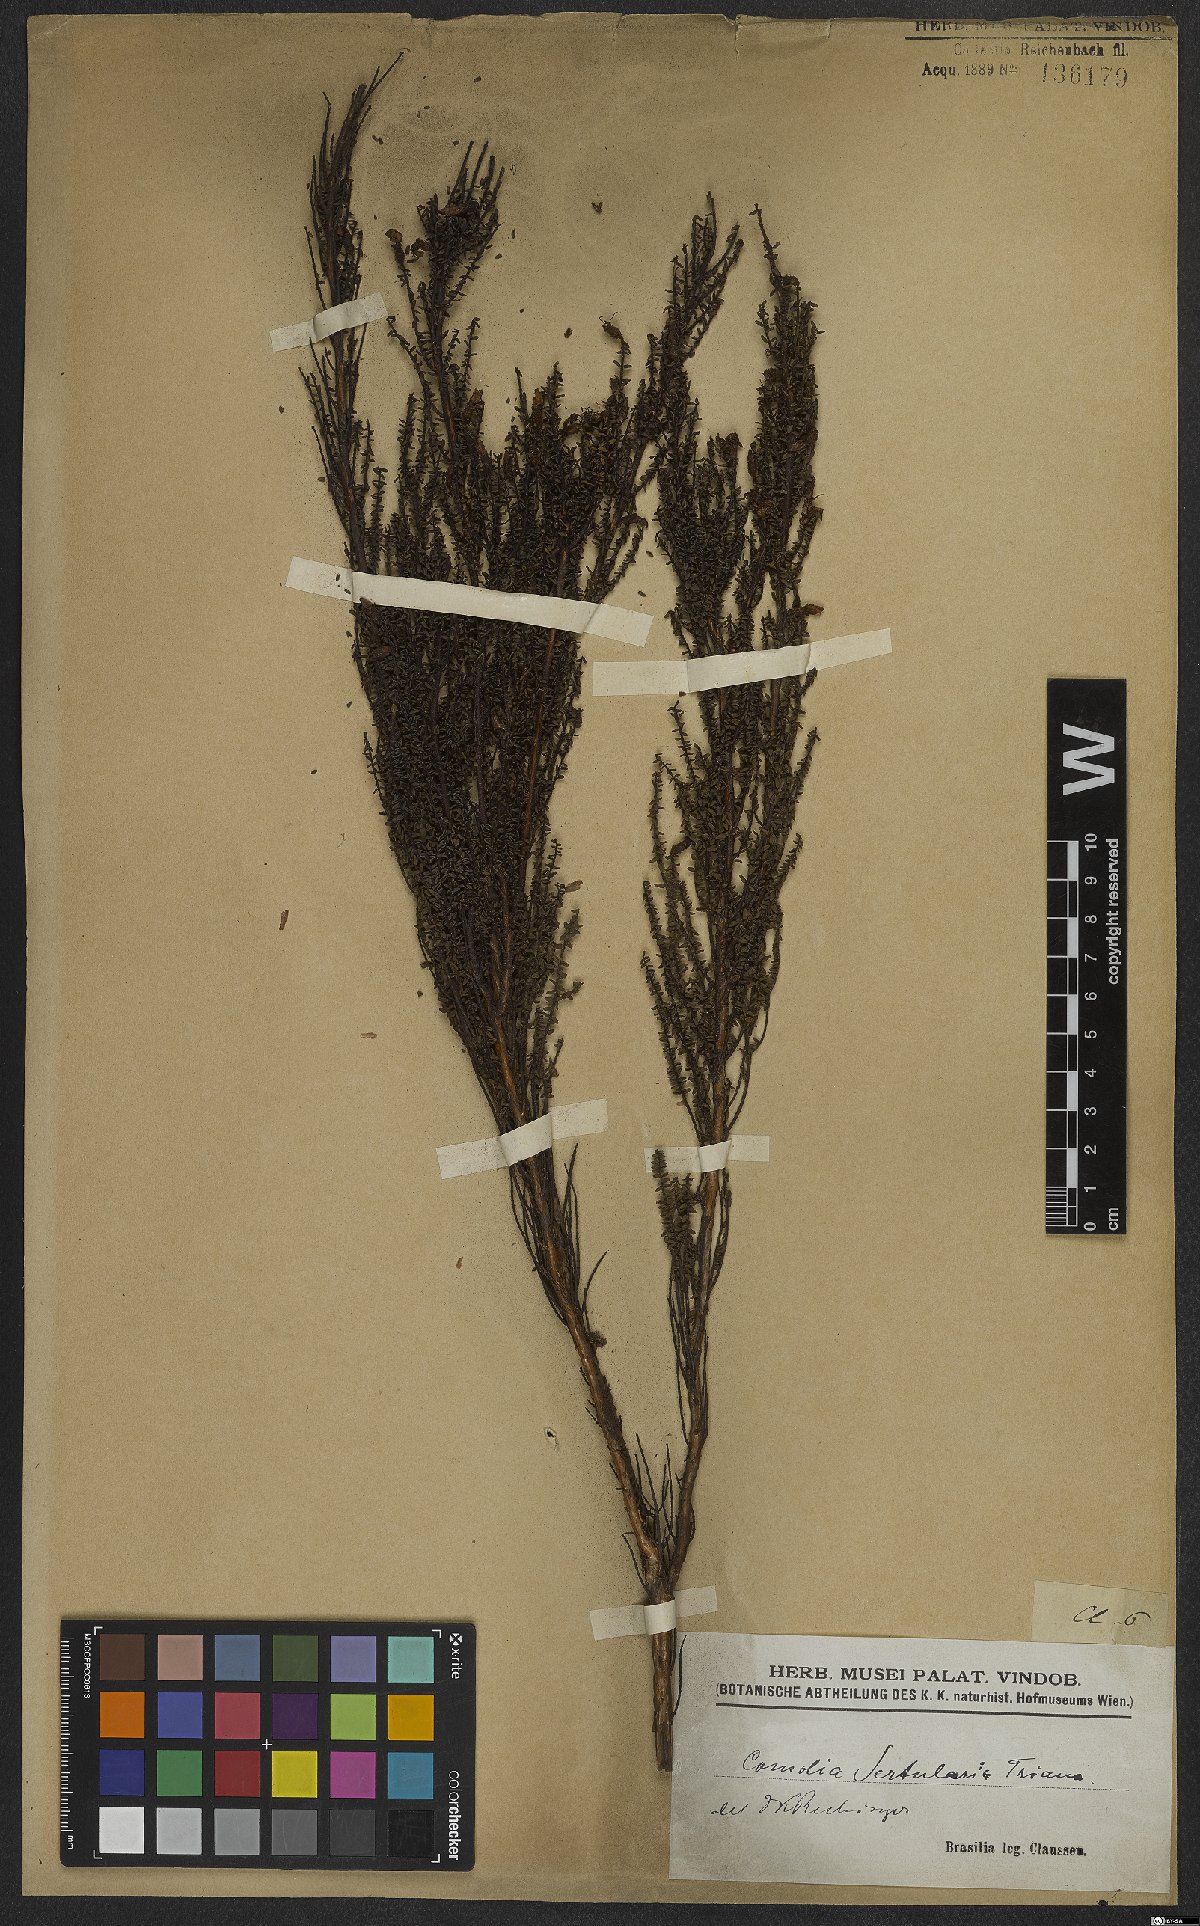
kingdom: Plantae
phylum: Tracheophyta
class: Magnoliopsida
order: Myrtales
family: Melastomataceae
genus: Fritzschia
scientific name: Fritzschia sertularia
